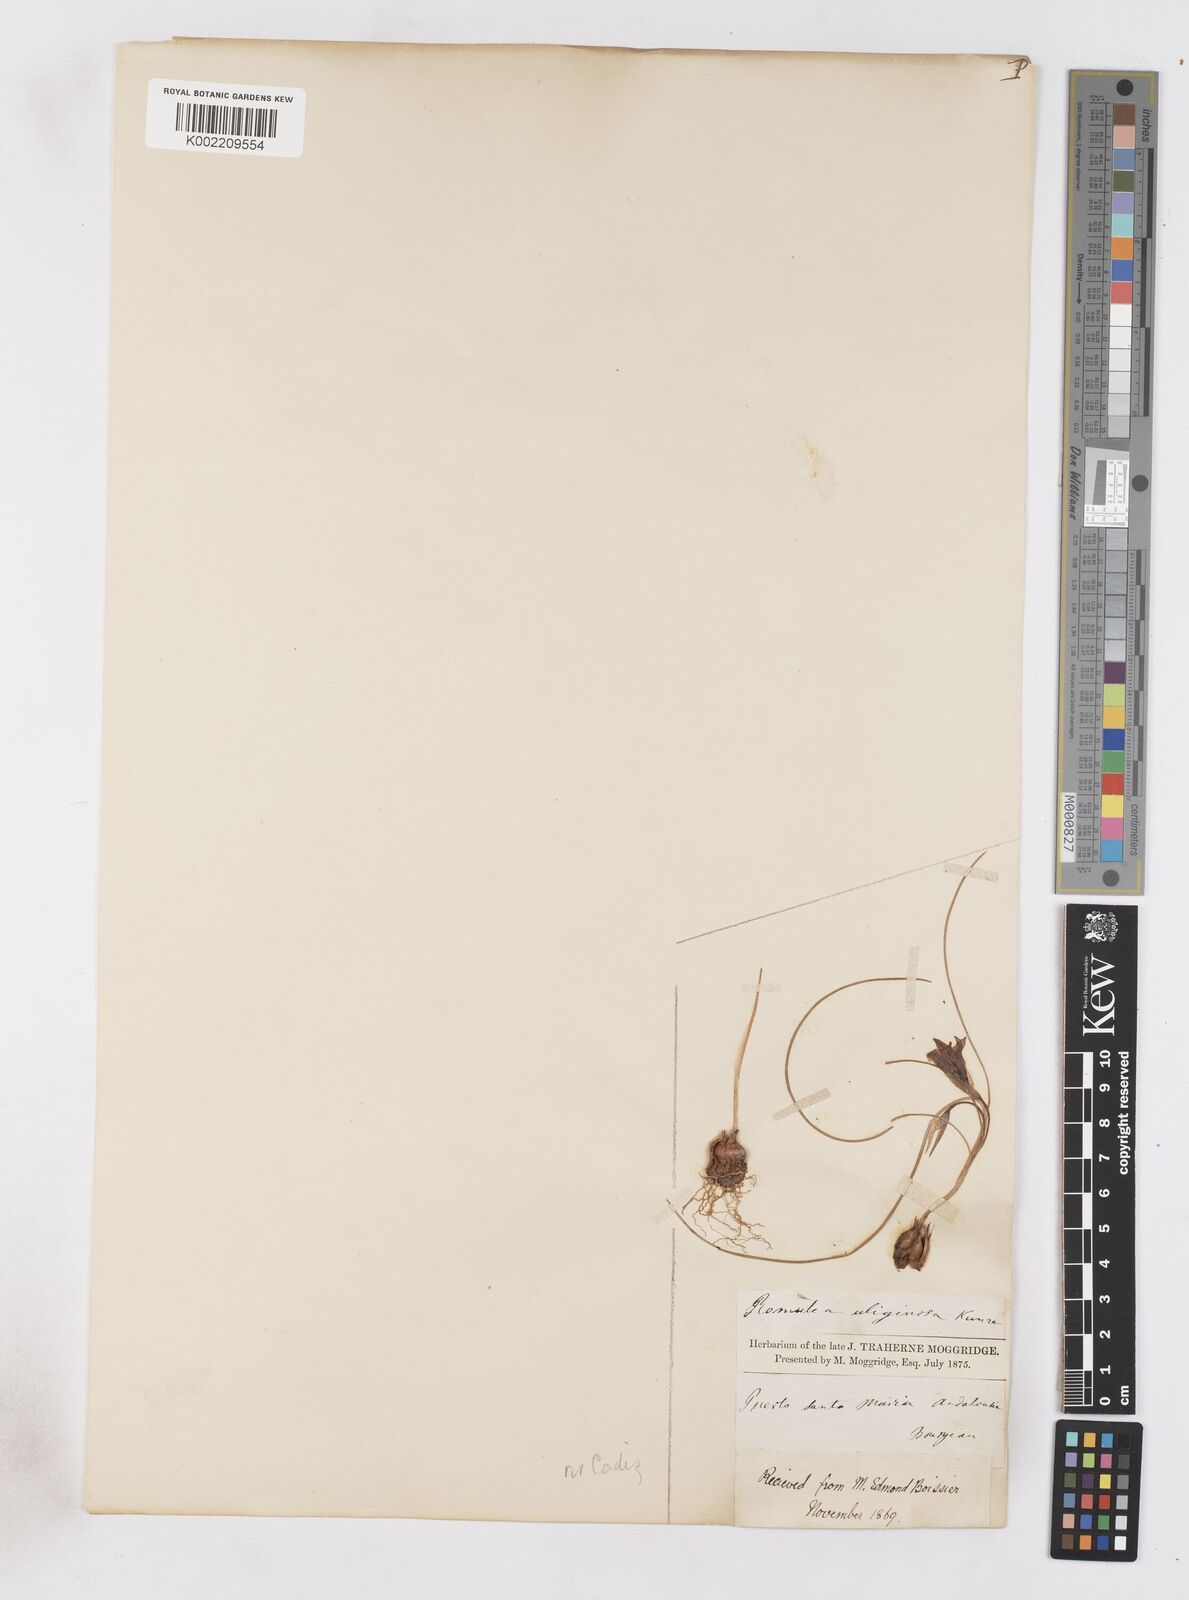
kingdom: Plantae
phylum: Tracheophyta
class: Liliopsida
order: Asparagales
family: Iridaceae
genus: Romulea
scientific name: Romulea bulbocodium
